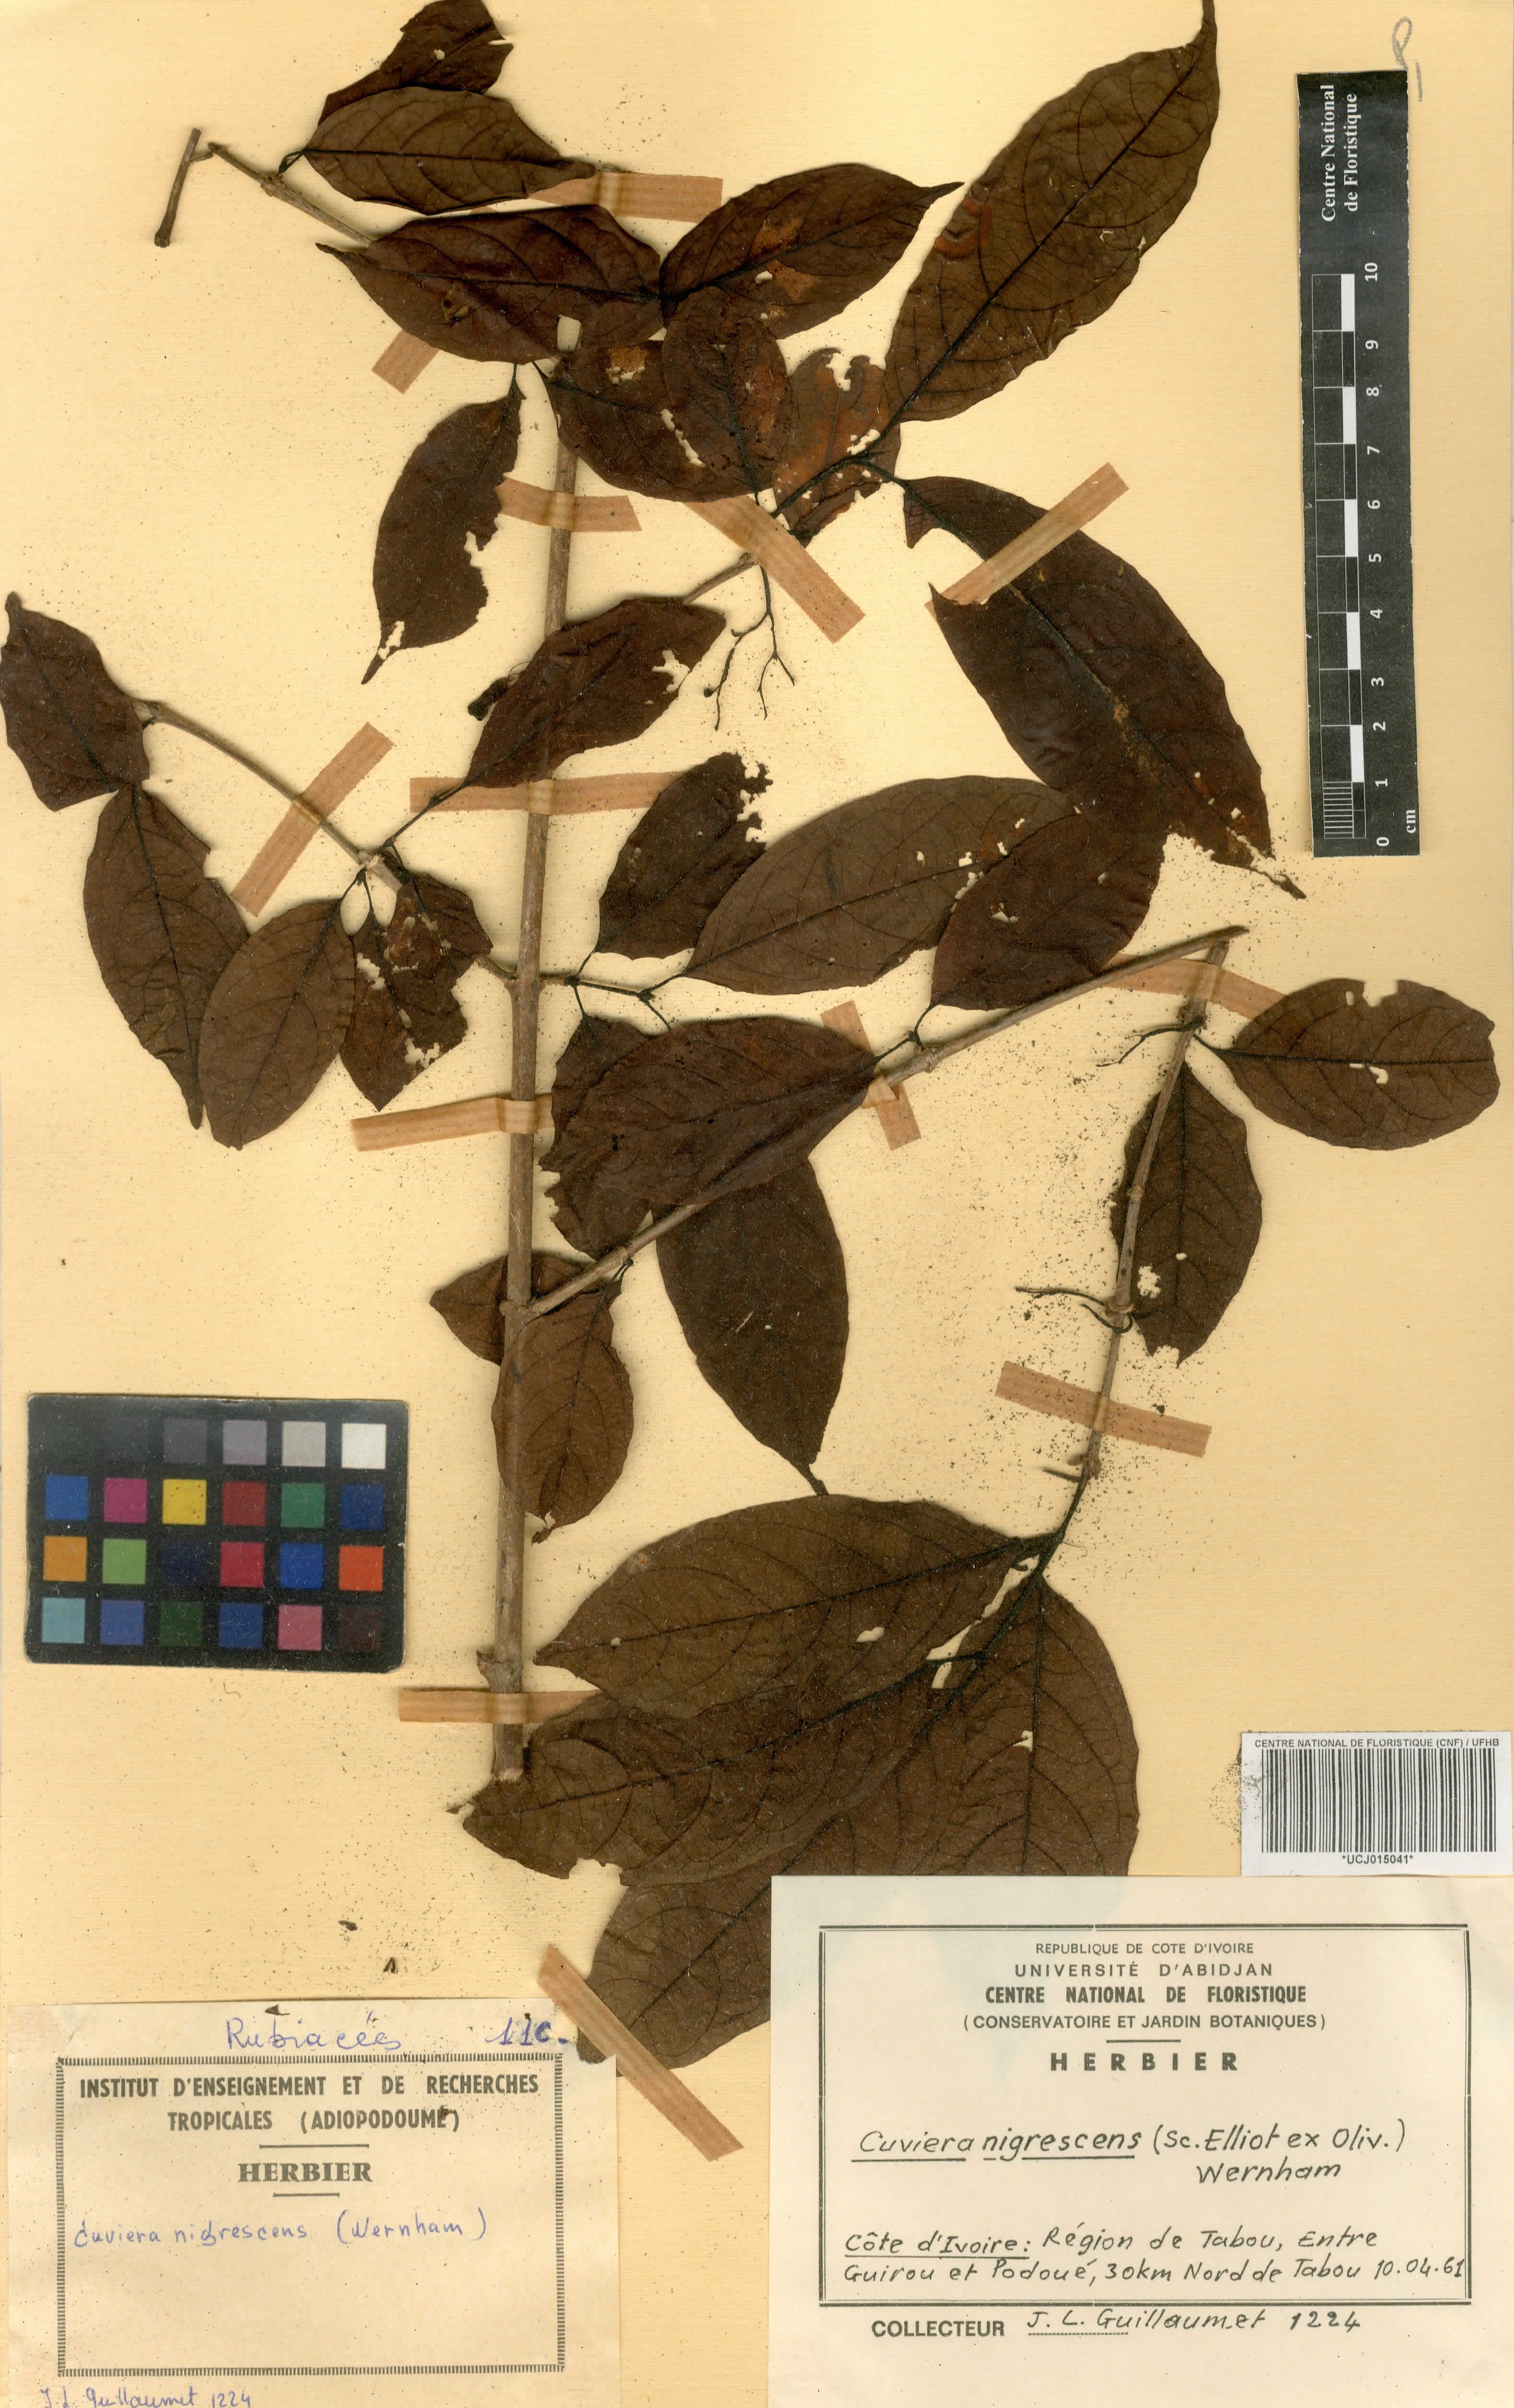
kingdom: Plantae
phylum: Tracheophyta
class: Magnoliopsida
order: Gentianales
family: Rubiaceae
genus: Cuviera
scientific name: Cuviera nigrescens
